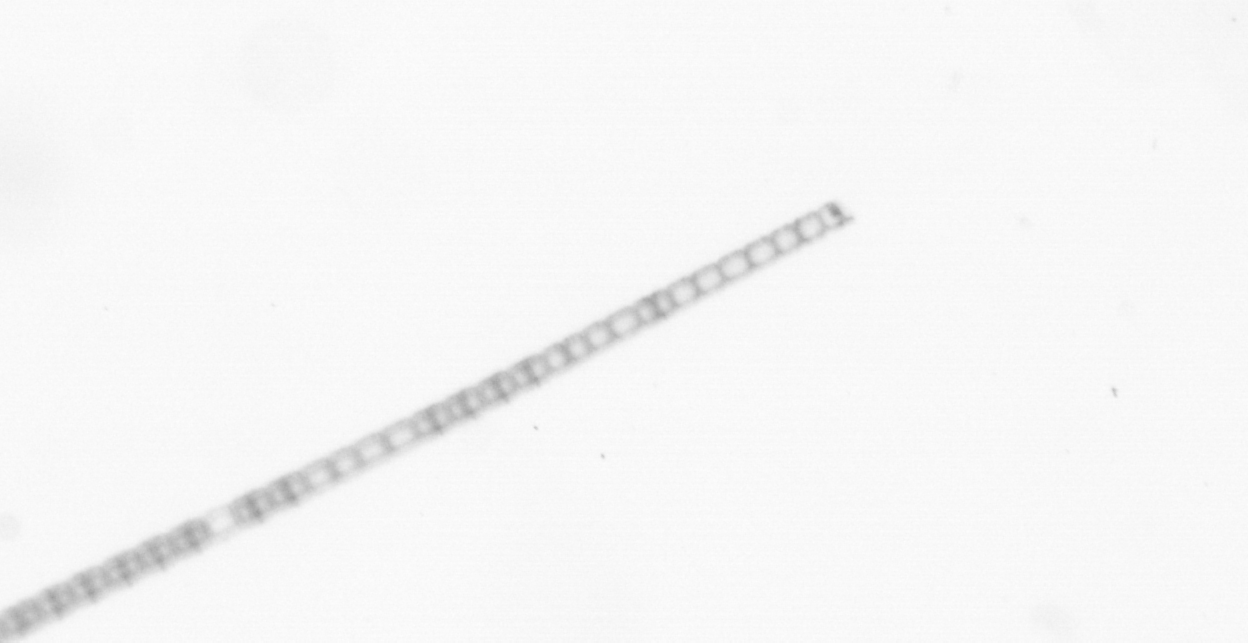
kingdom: Chromista
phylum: Ochrophyta
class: Bacillariophyceae
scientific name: Bacillariophyceae
